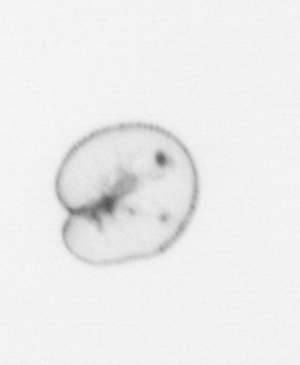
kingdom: Chromista
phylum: Myzozoa
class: Dinophyceae
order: Noctilucales
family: Noctilucaceae
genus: Noctiluca
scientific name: Noctiluca scintillans
